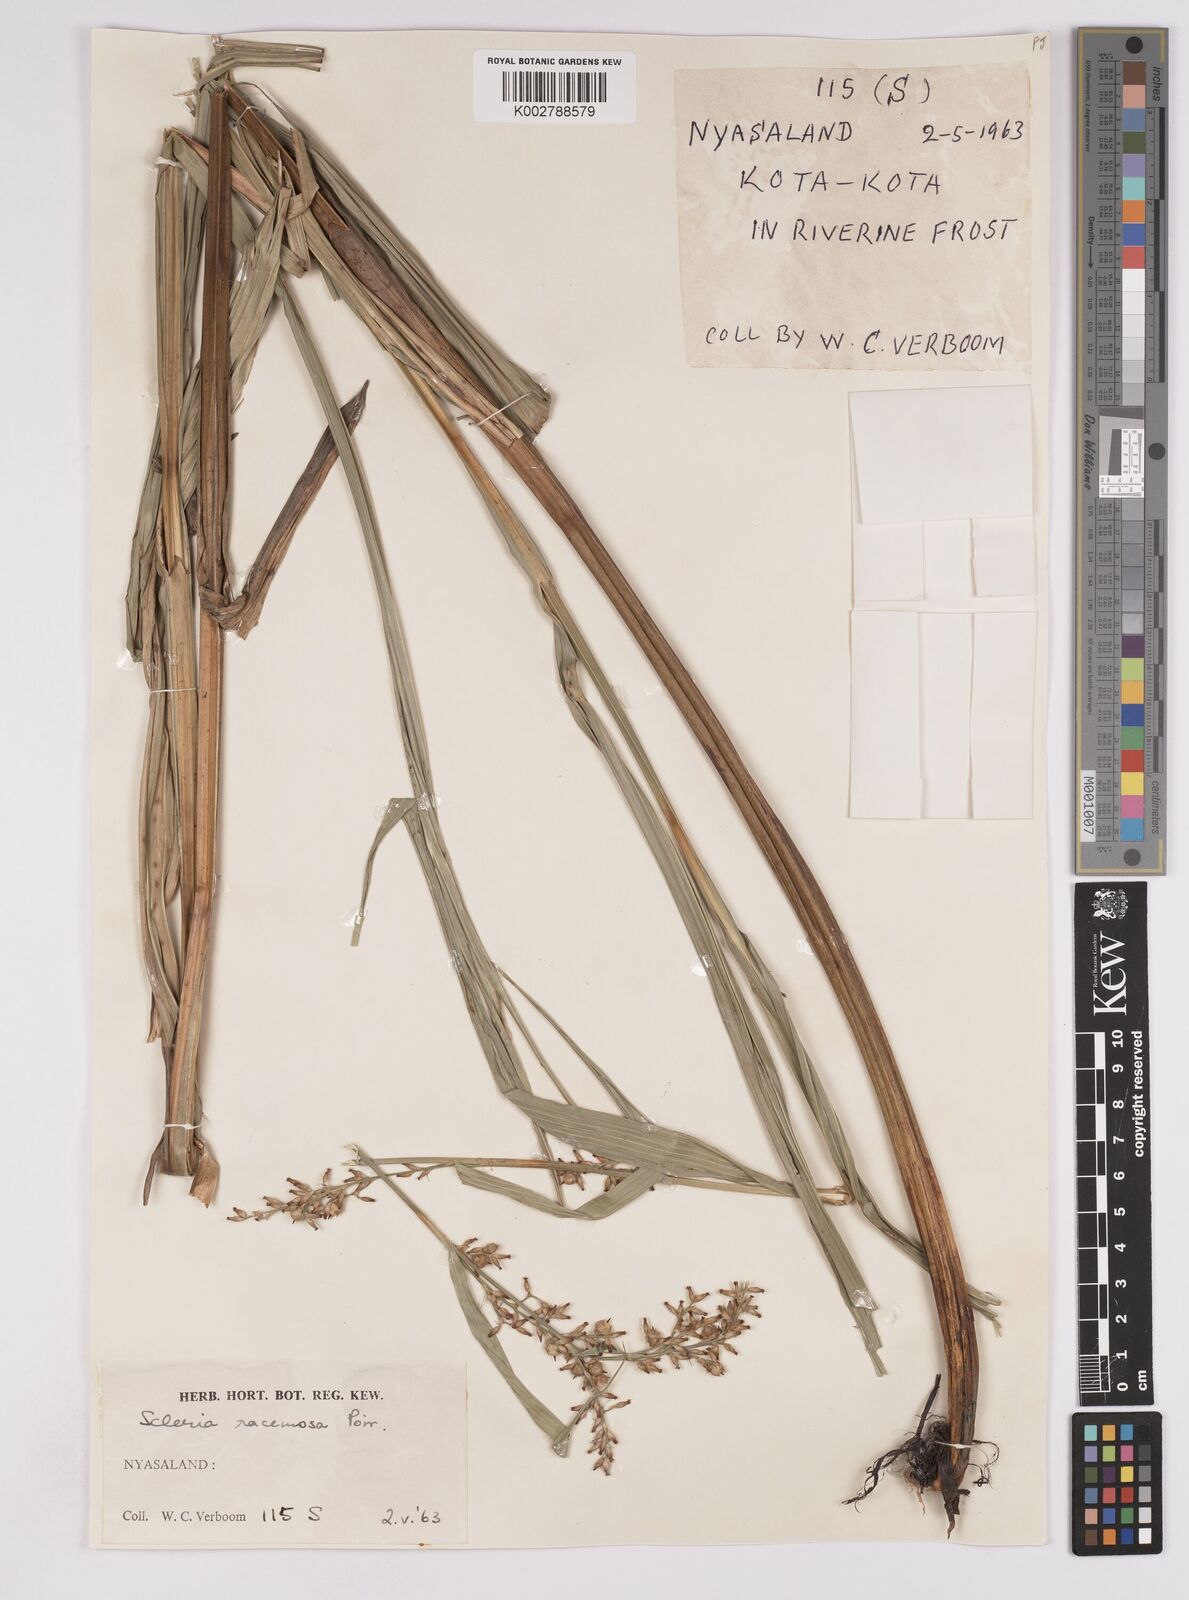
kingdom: Plantae
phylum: Tracheophyta
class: Liliopsida
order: Poales
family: Cyperaceae
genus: Scleria
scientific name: Scleria racemosa
